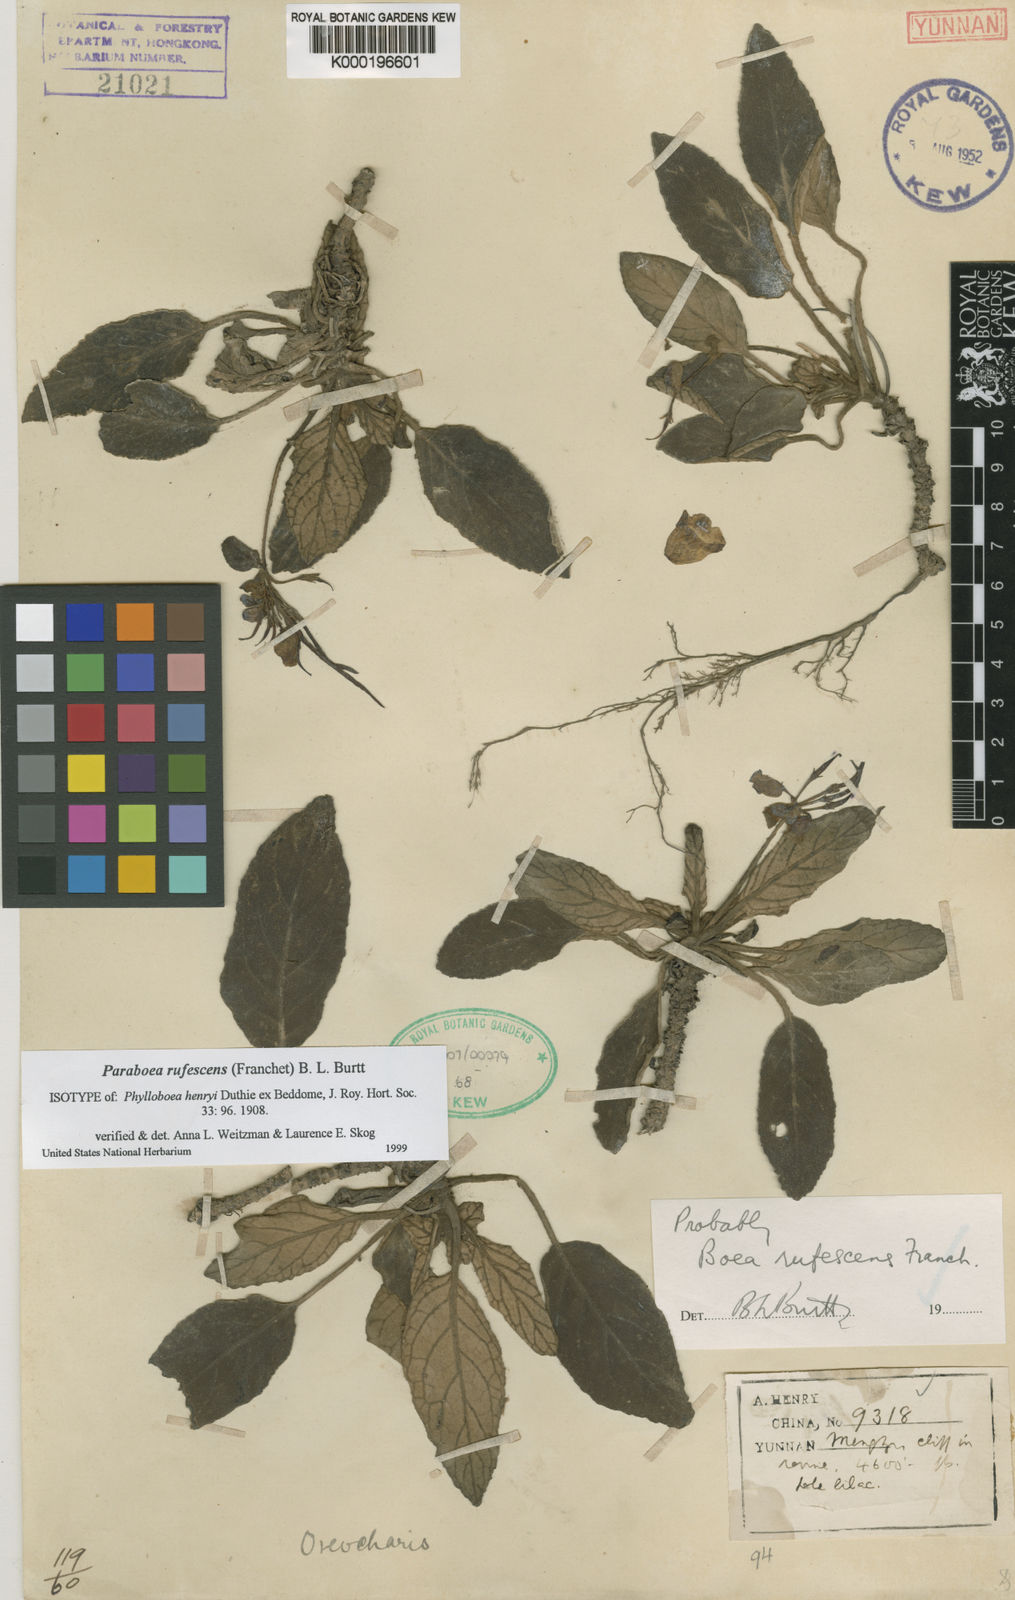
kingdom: Plantae
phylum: Tracheophyta
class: Magnoliopsida
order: Lamiales
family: Gesneriaceae
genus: Paraboea
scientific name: Paraboea rufescens
